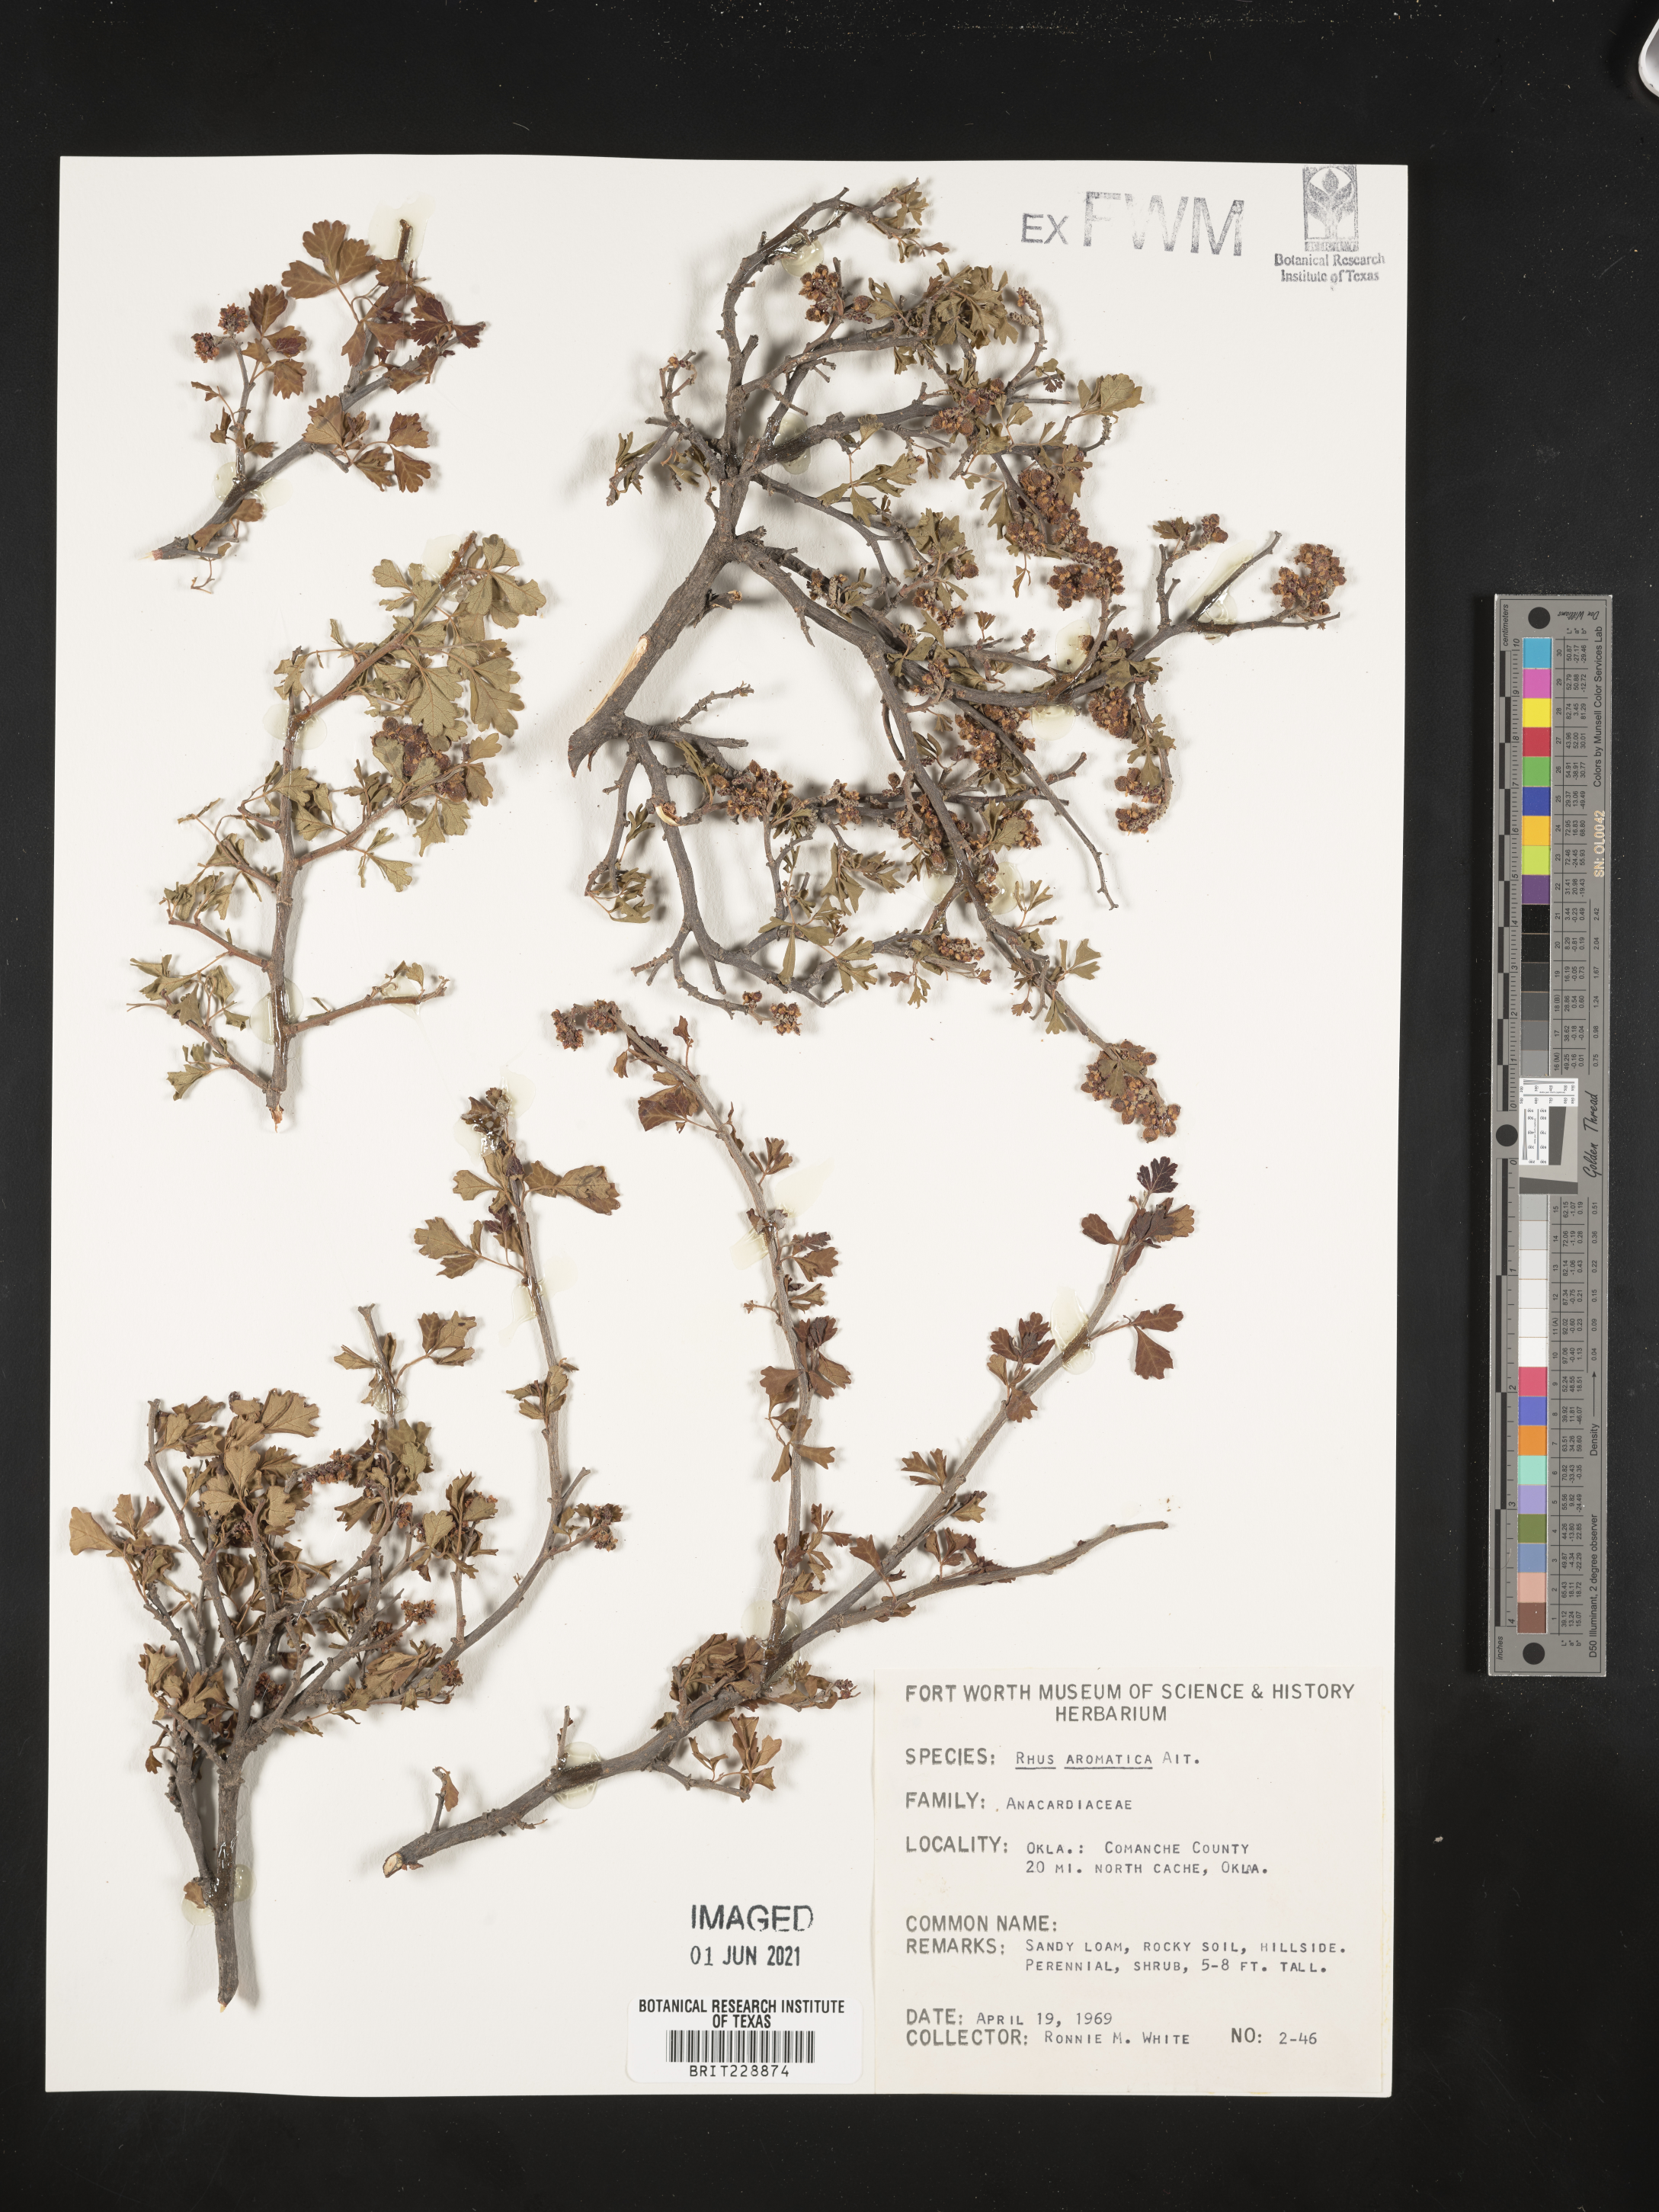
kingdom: Plantae
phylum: Tracheophyta
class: Magnoliopsida
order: Sapindales
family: Anacardiaceae
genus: Rhus
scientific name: Rhus aromatica
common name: Aromatic sumac
